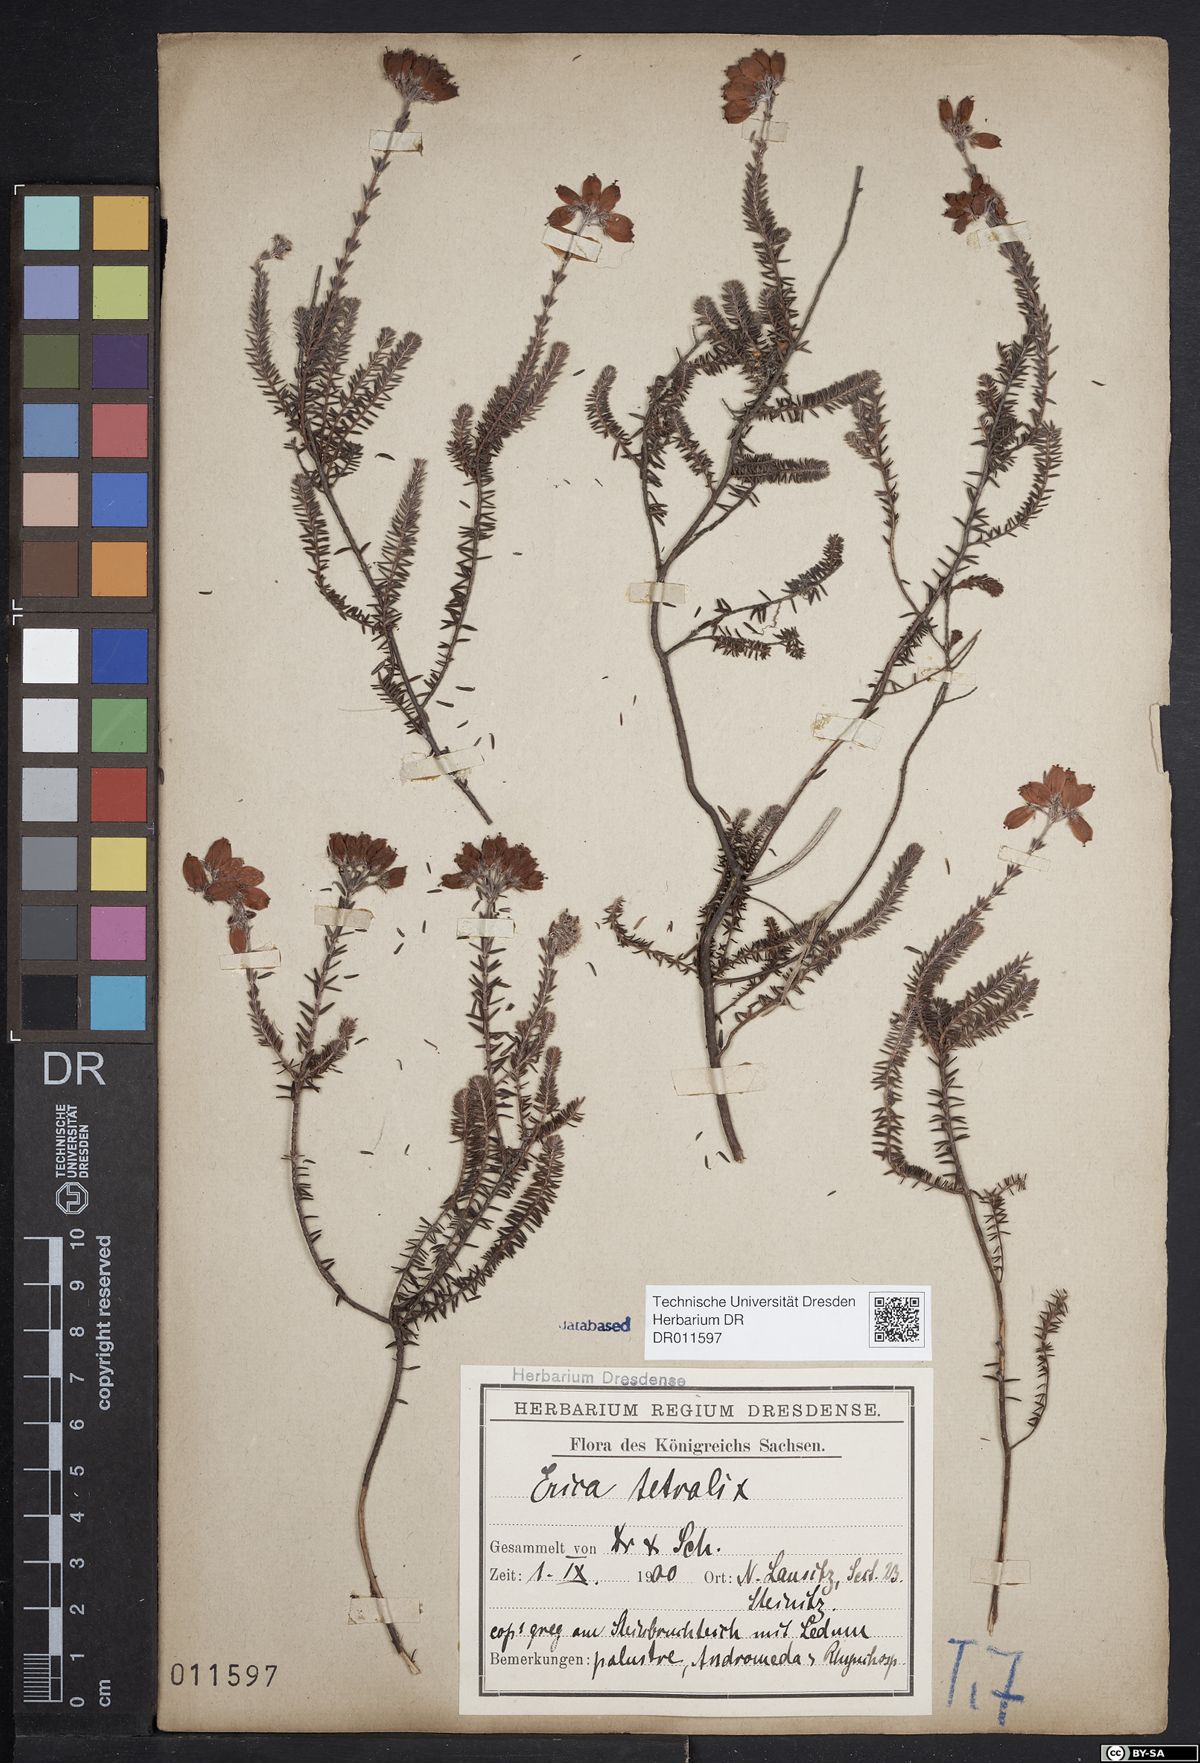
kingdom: Plantae
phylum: Tracheophyta
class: Magnoliopsida
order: Ericales
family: Ericaceae
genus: Erica
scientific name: Erica tetralix
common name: Cross-leaved heath
